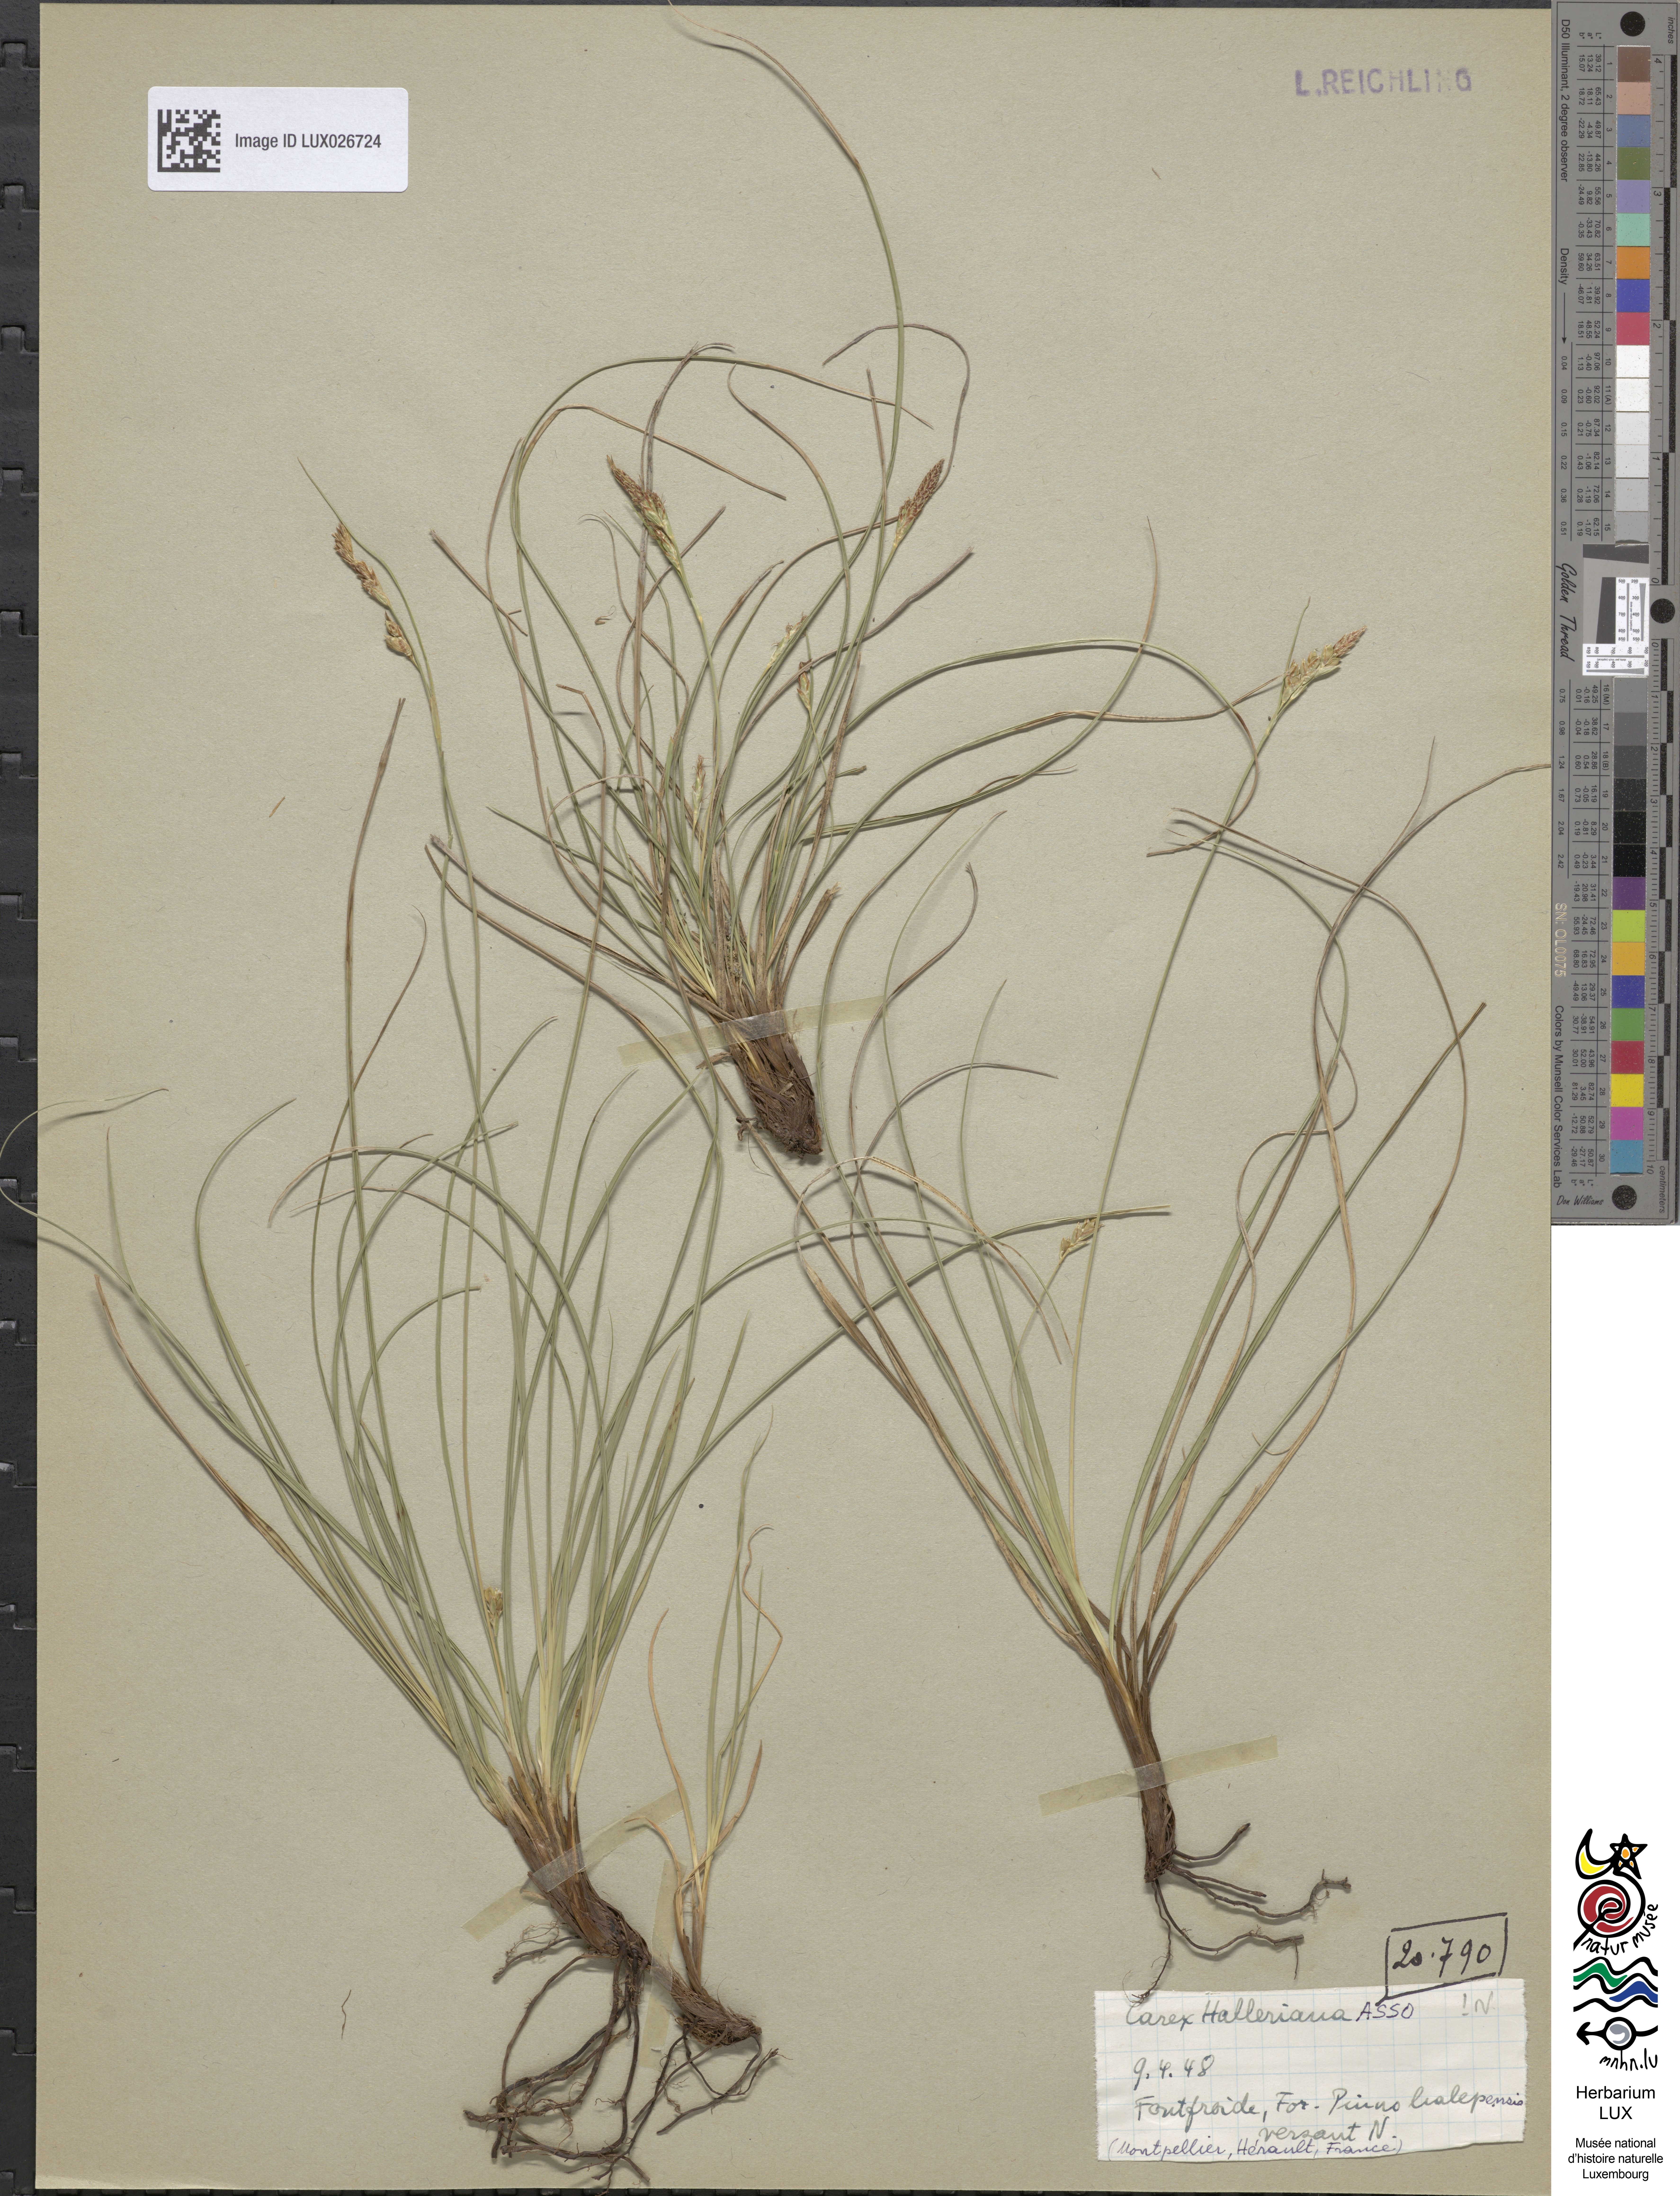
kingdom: Plantae
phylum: Tracheophyta
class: Liliopsida
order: Poales
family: Cyperaceae
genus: Carex
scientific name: Carex halleriana
